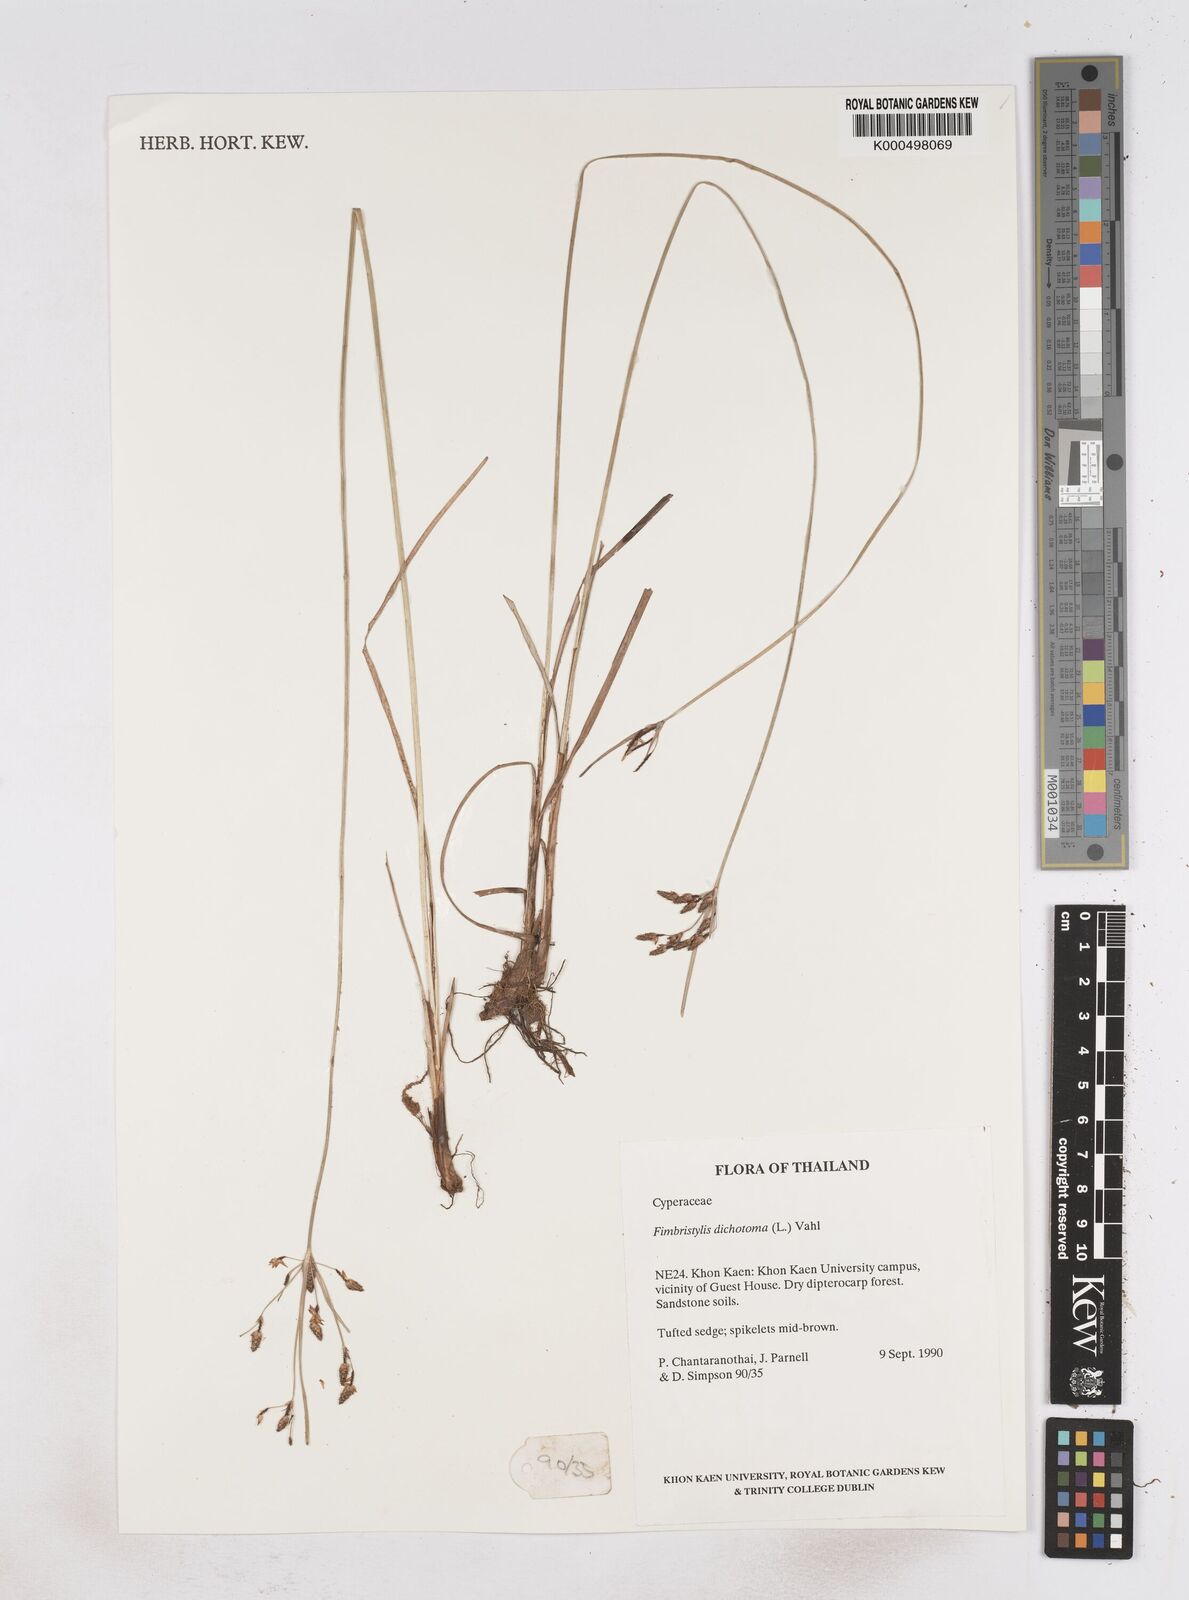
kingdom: Plantae
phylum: Tracheophyta
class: Liliopsida
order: Poales
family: Cyperaceae
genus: Fimbristylis
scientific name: Fimbristylis dichotoma
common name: Forked fimbry
